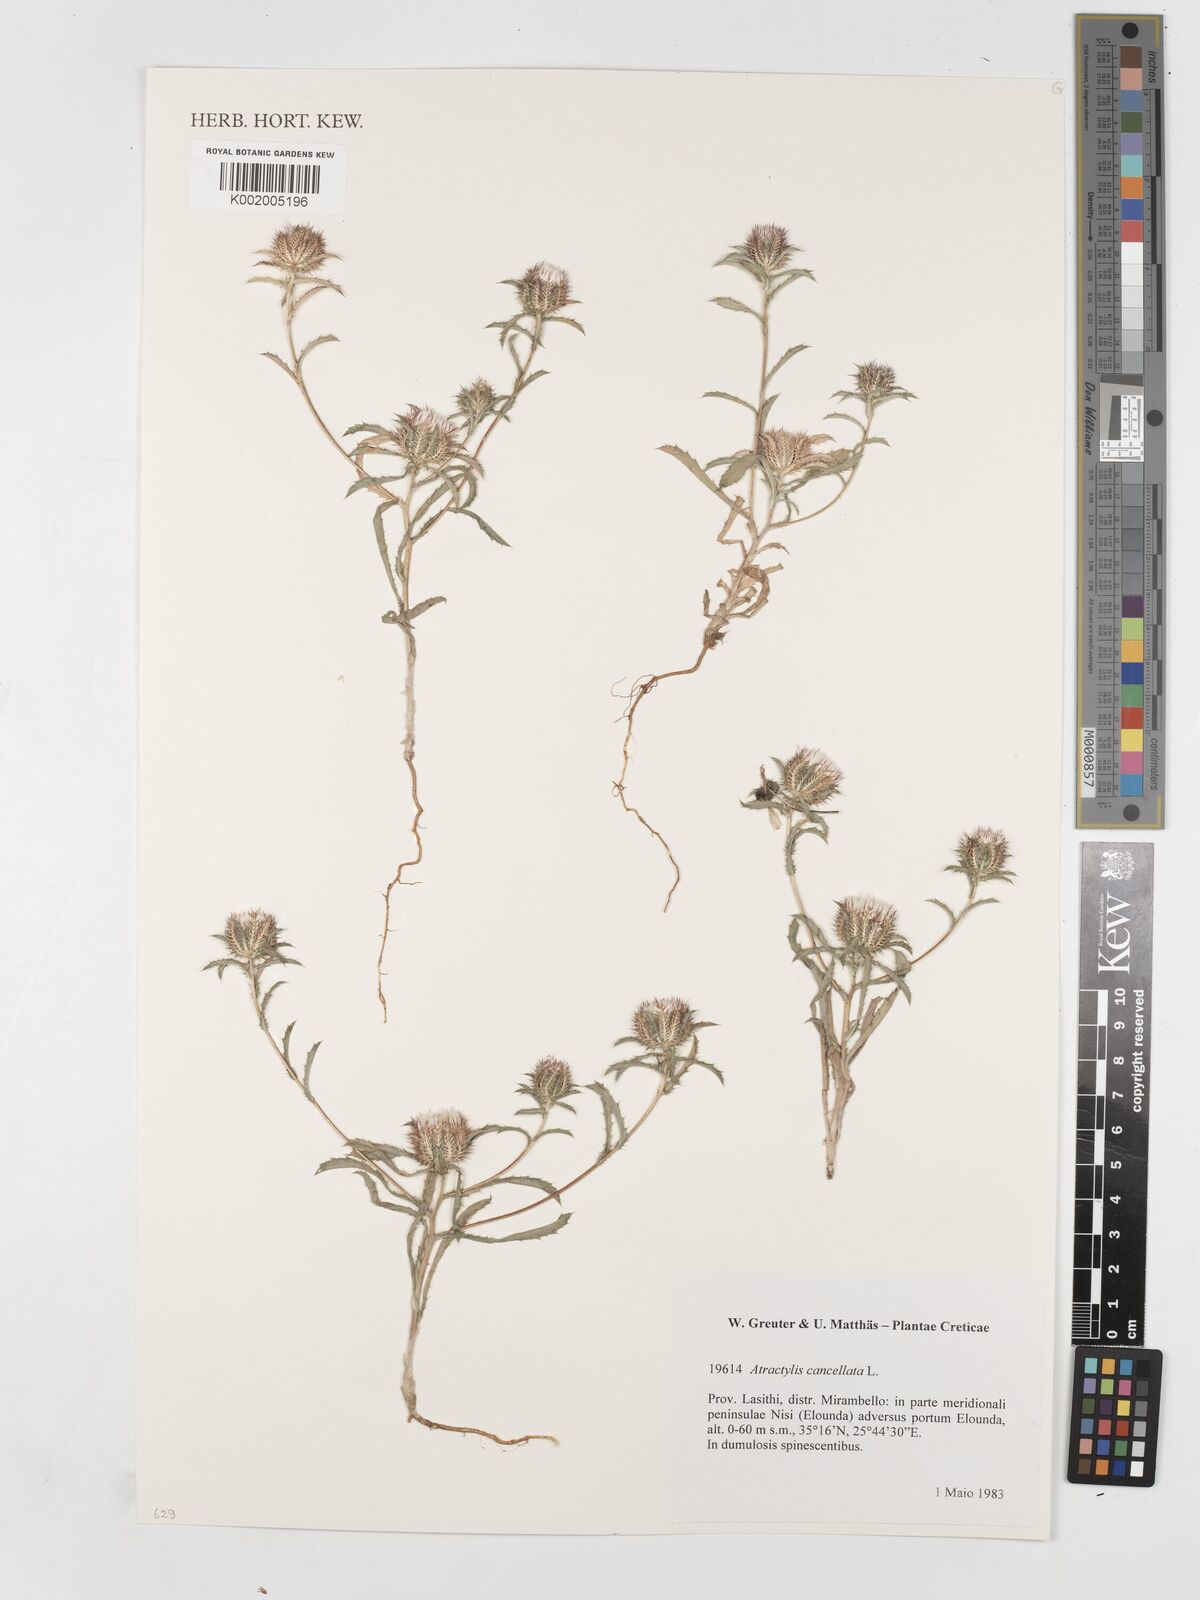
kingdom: Plantae
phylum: Tracheophyta
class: Magnoliopsida
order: Asterales
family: Asteraceae
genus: Atractylis
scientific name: Atractylis cancellata
